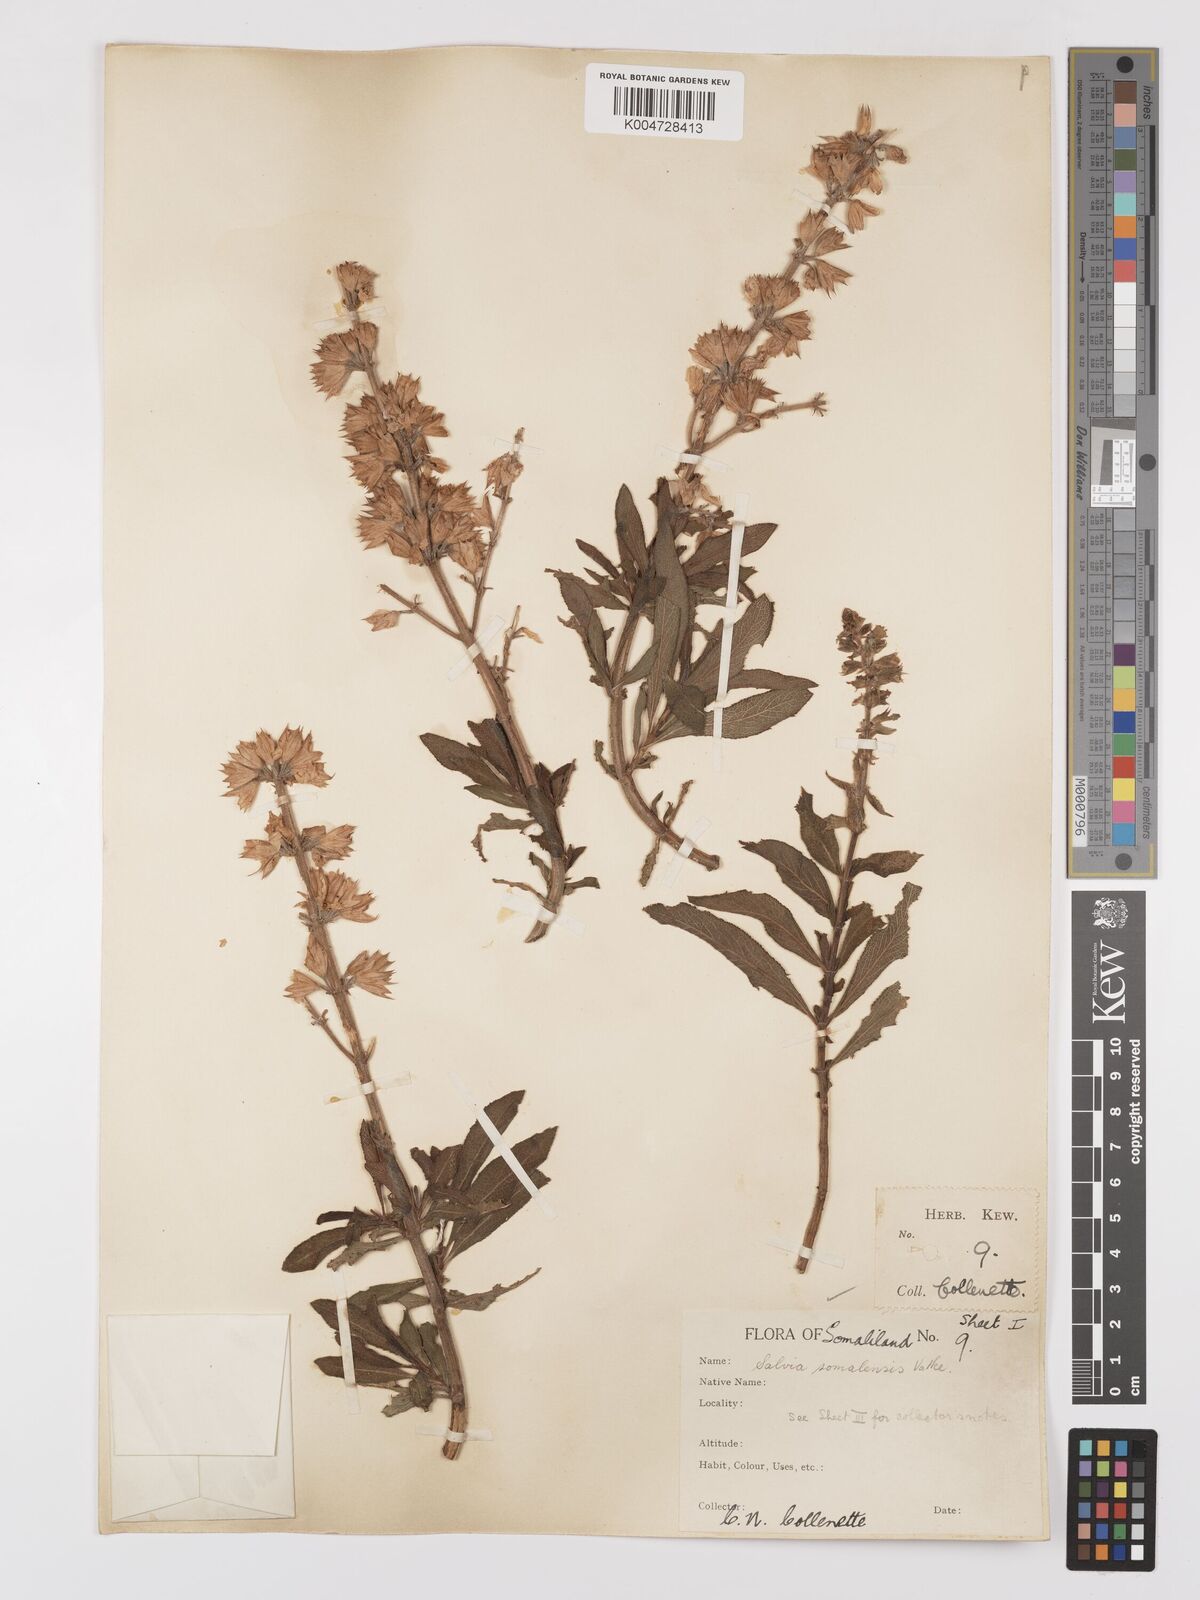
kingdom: Plantae
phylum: Tracheophyta
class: Magnoliopsida
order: Lamiales
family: Lamiaceae
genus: Salvia
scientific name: Salvia somalensis
